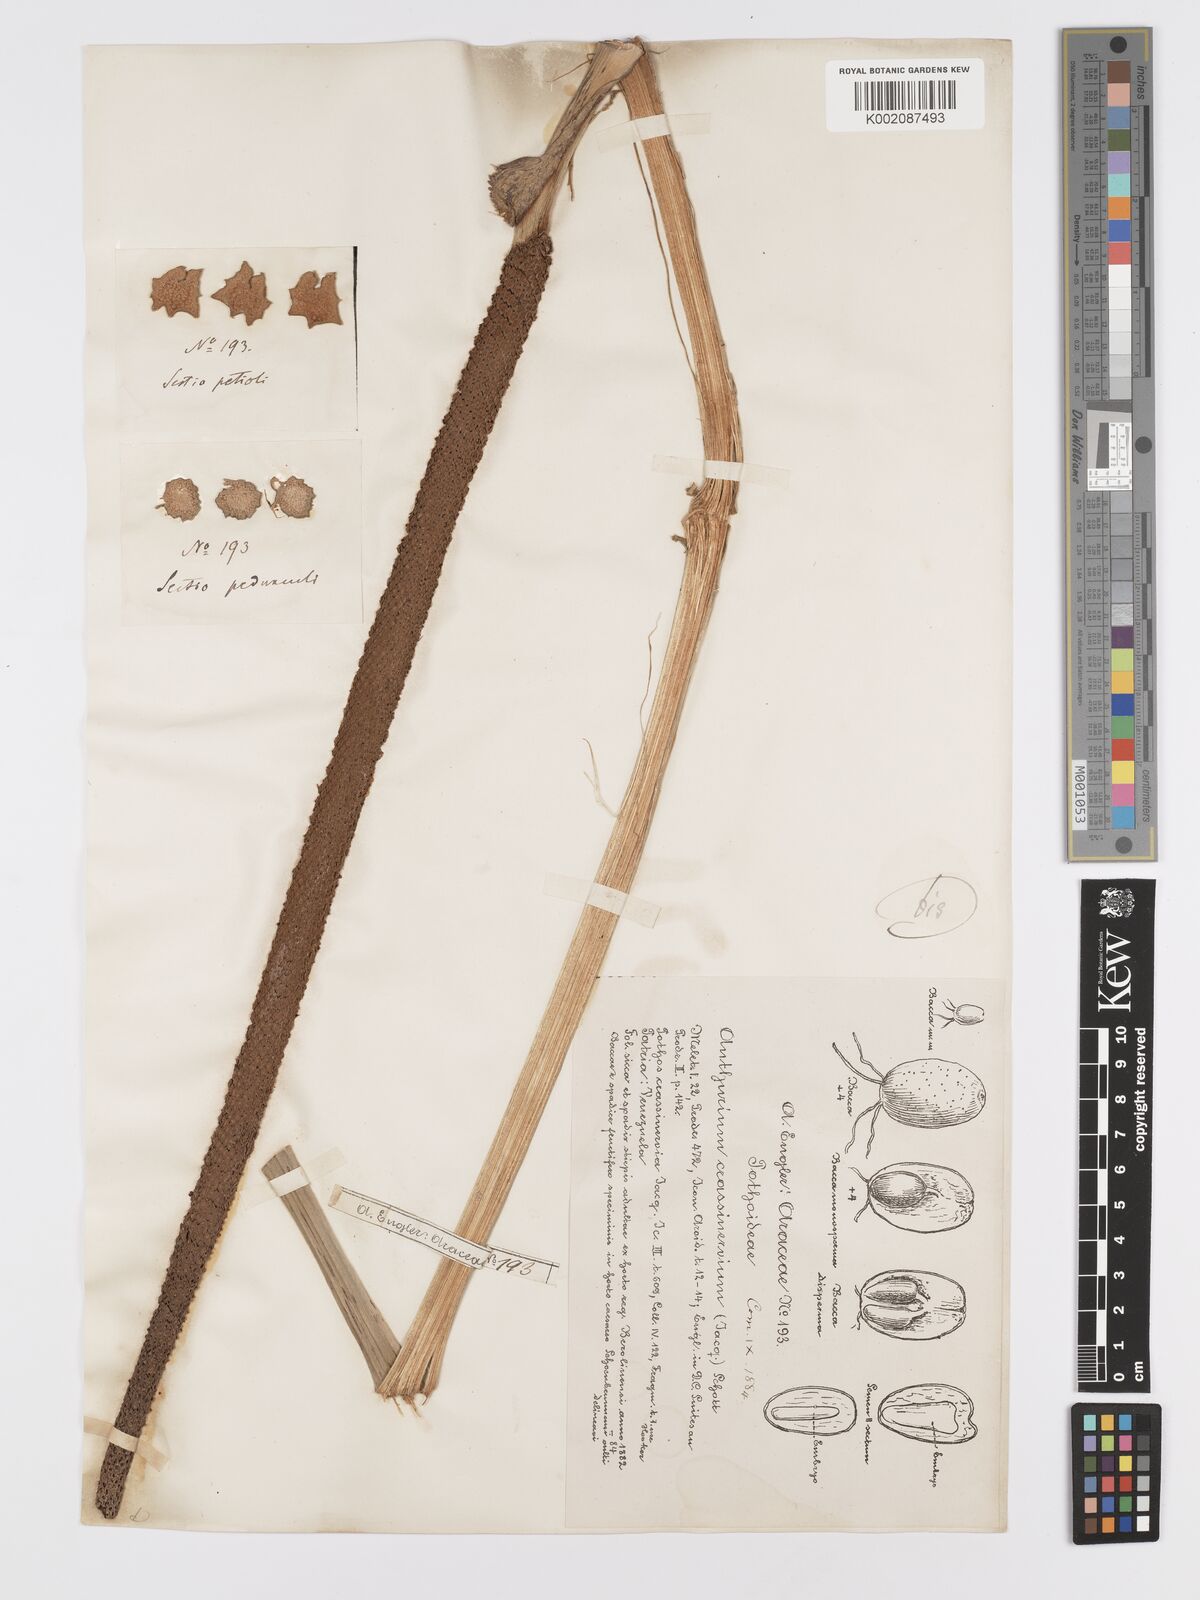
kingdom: Plantae
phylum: Tracheophyta
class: Liliopsida
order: Alismatales
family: Araceae
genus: Anthurium
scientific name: Anthurium crassinervium
